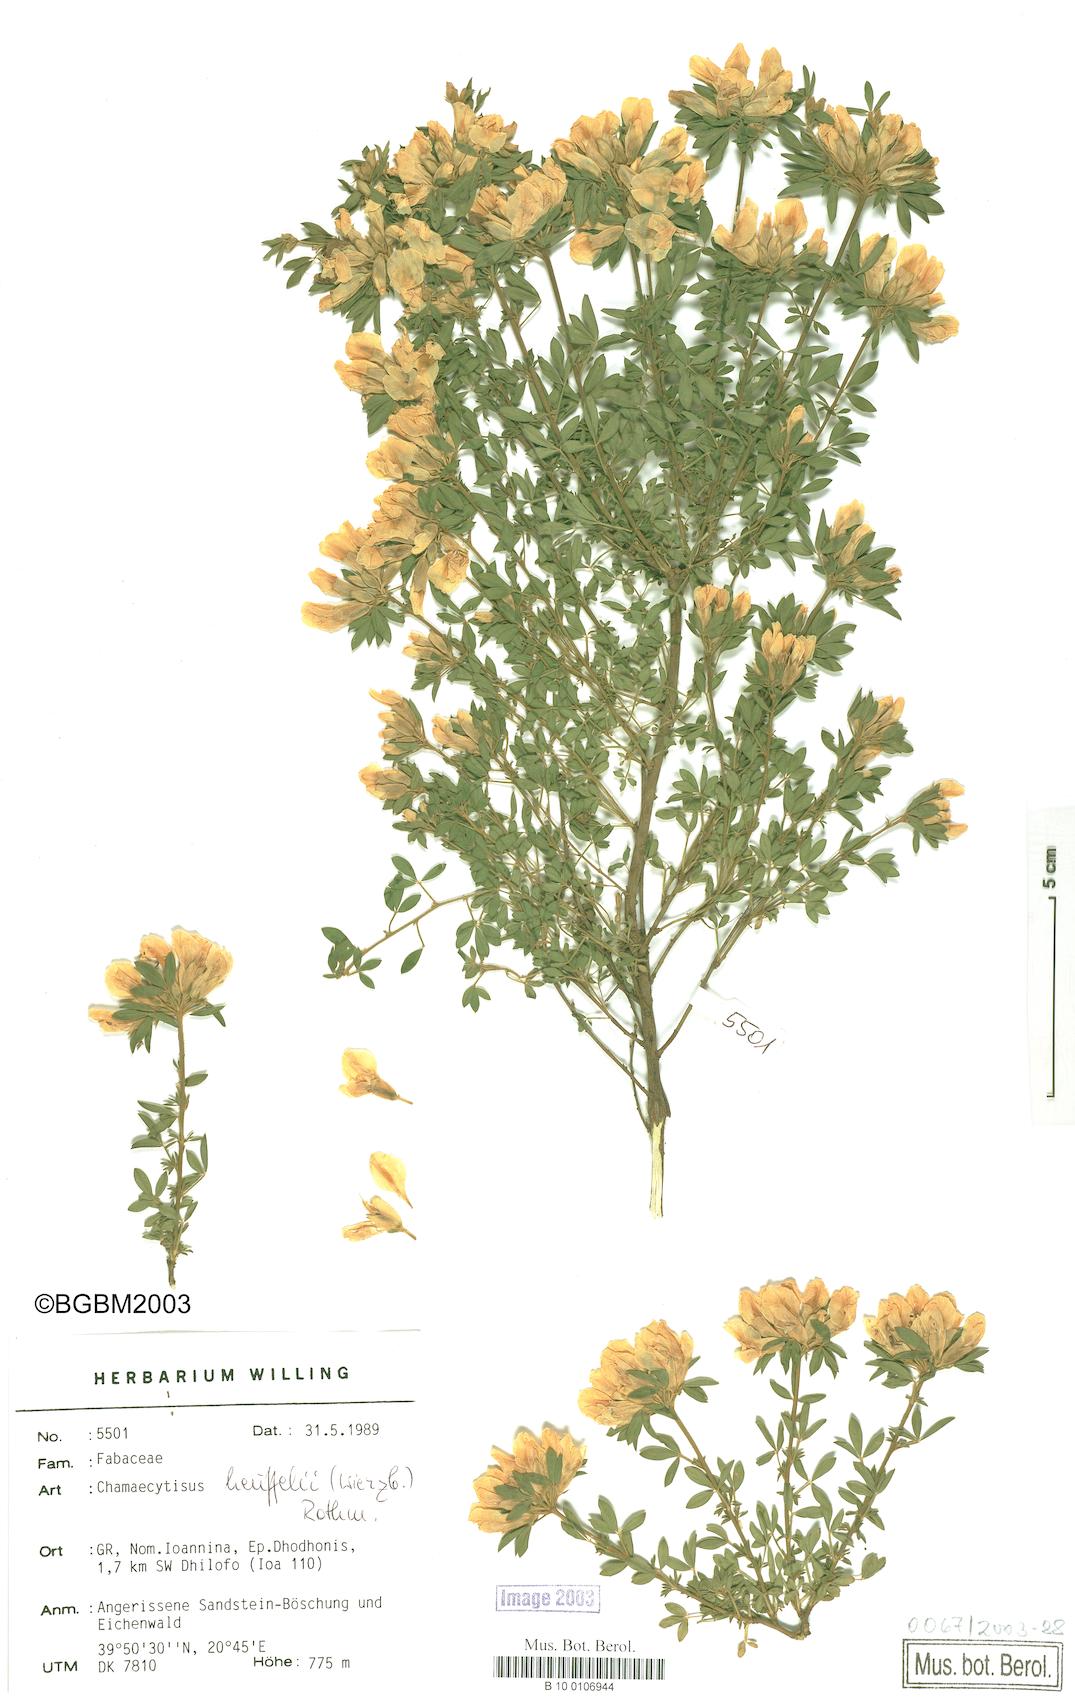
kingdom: Plantae
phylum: Tracheophyta
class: Magnoliopsida
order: Fabales
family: Fabaceae
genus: Chamaecytisus
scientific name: Chamaecytisus heuffelii
